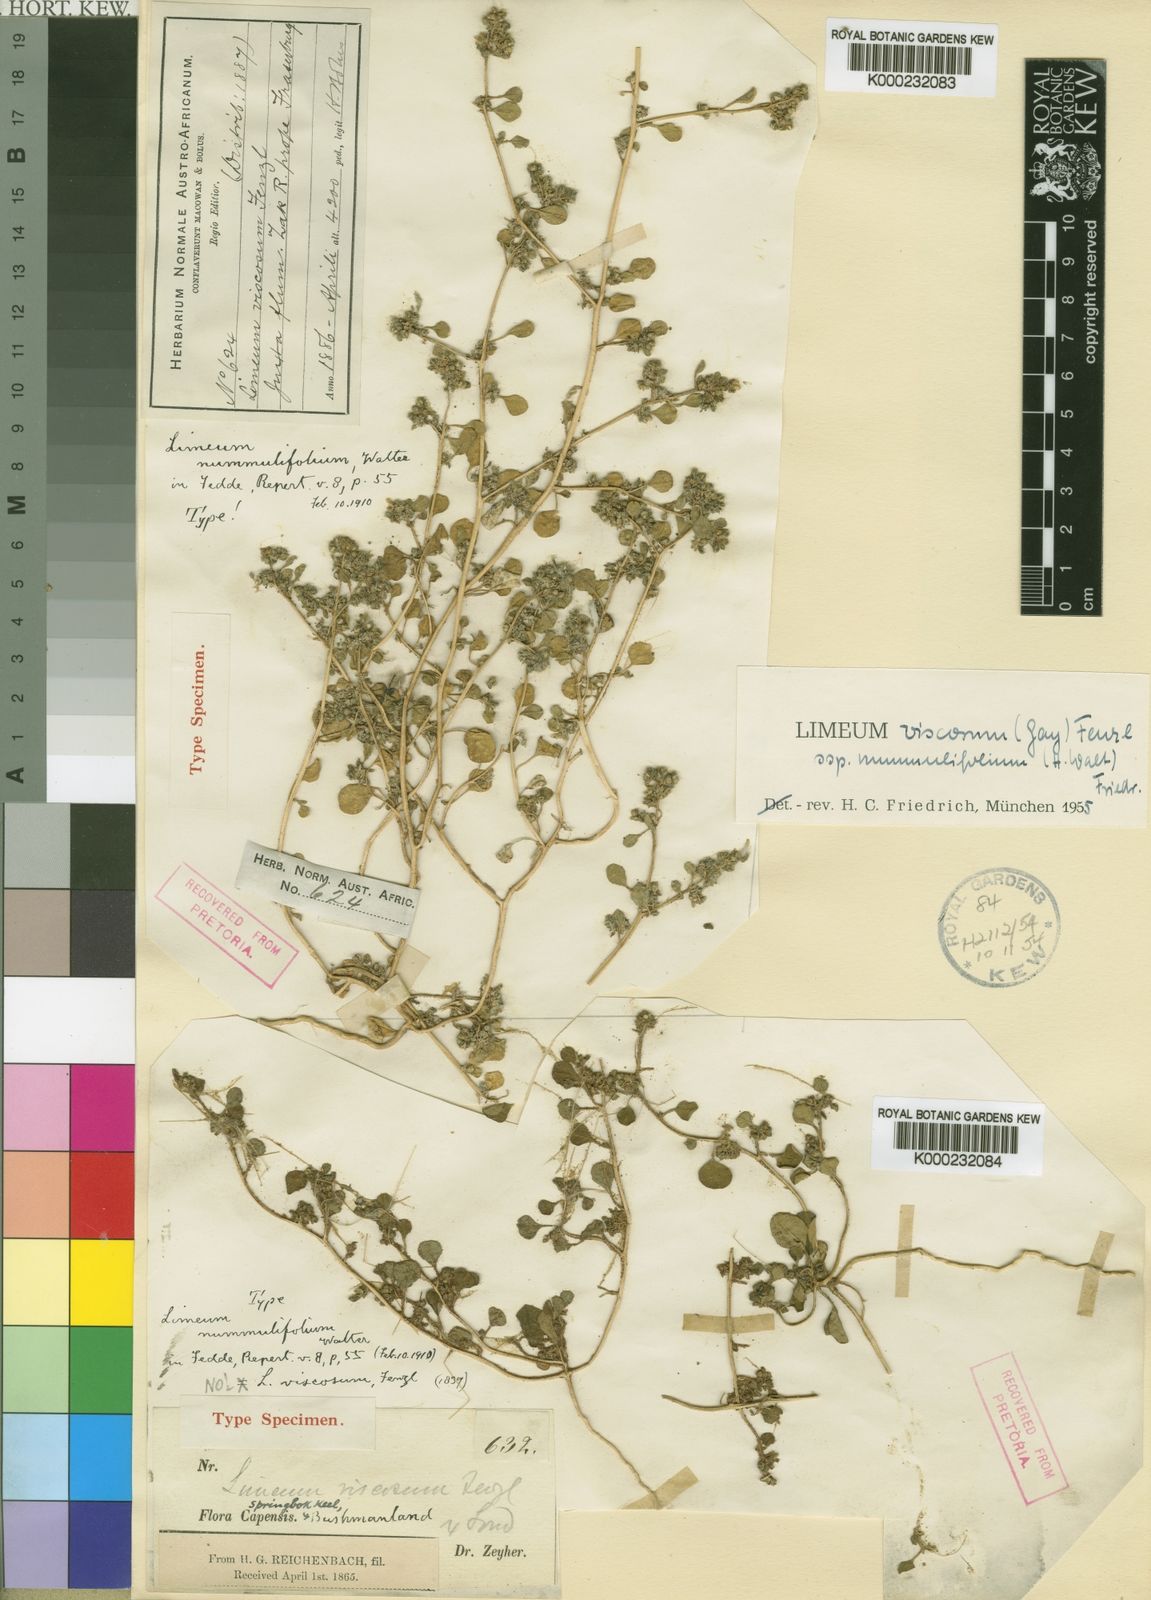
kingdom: Plantae
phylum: Tracheophyta
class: Magnoliopsida
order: Caryophyllales
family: Limeaceae
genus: Limeum
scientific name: Limeum viscosum
